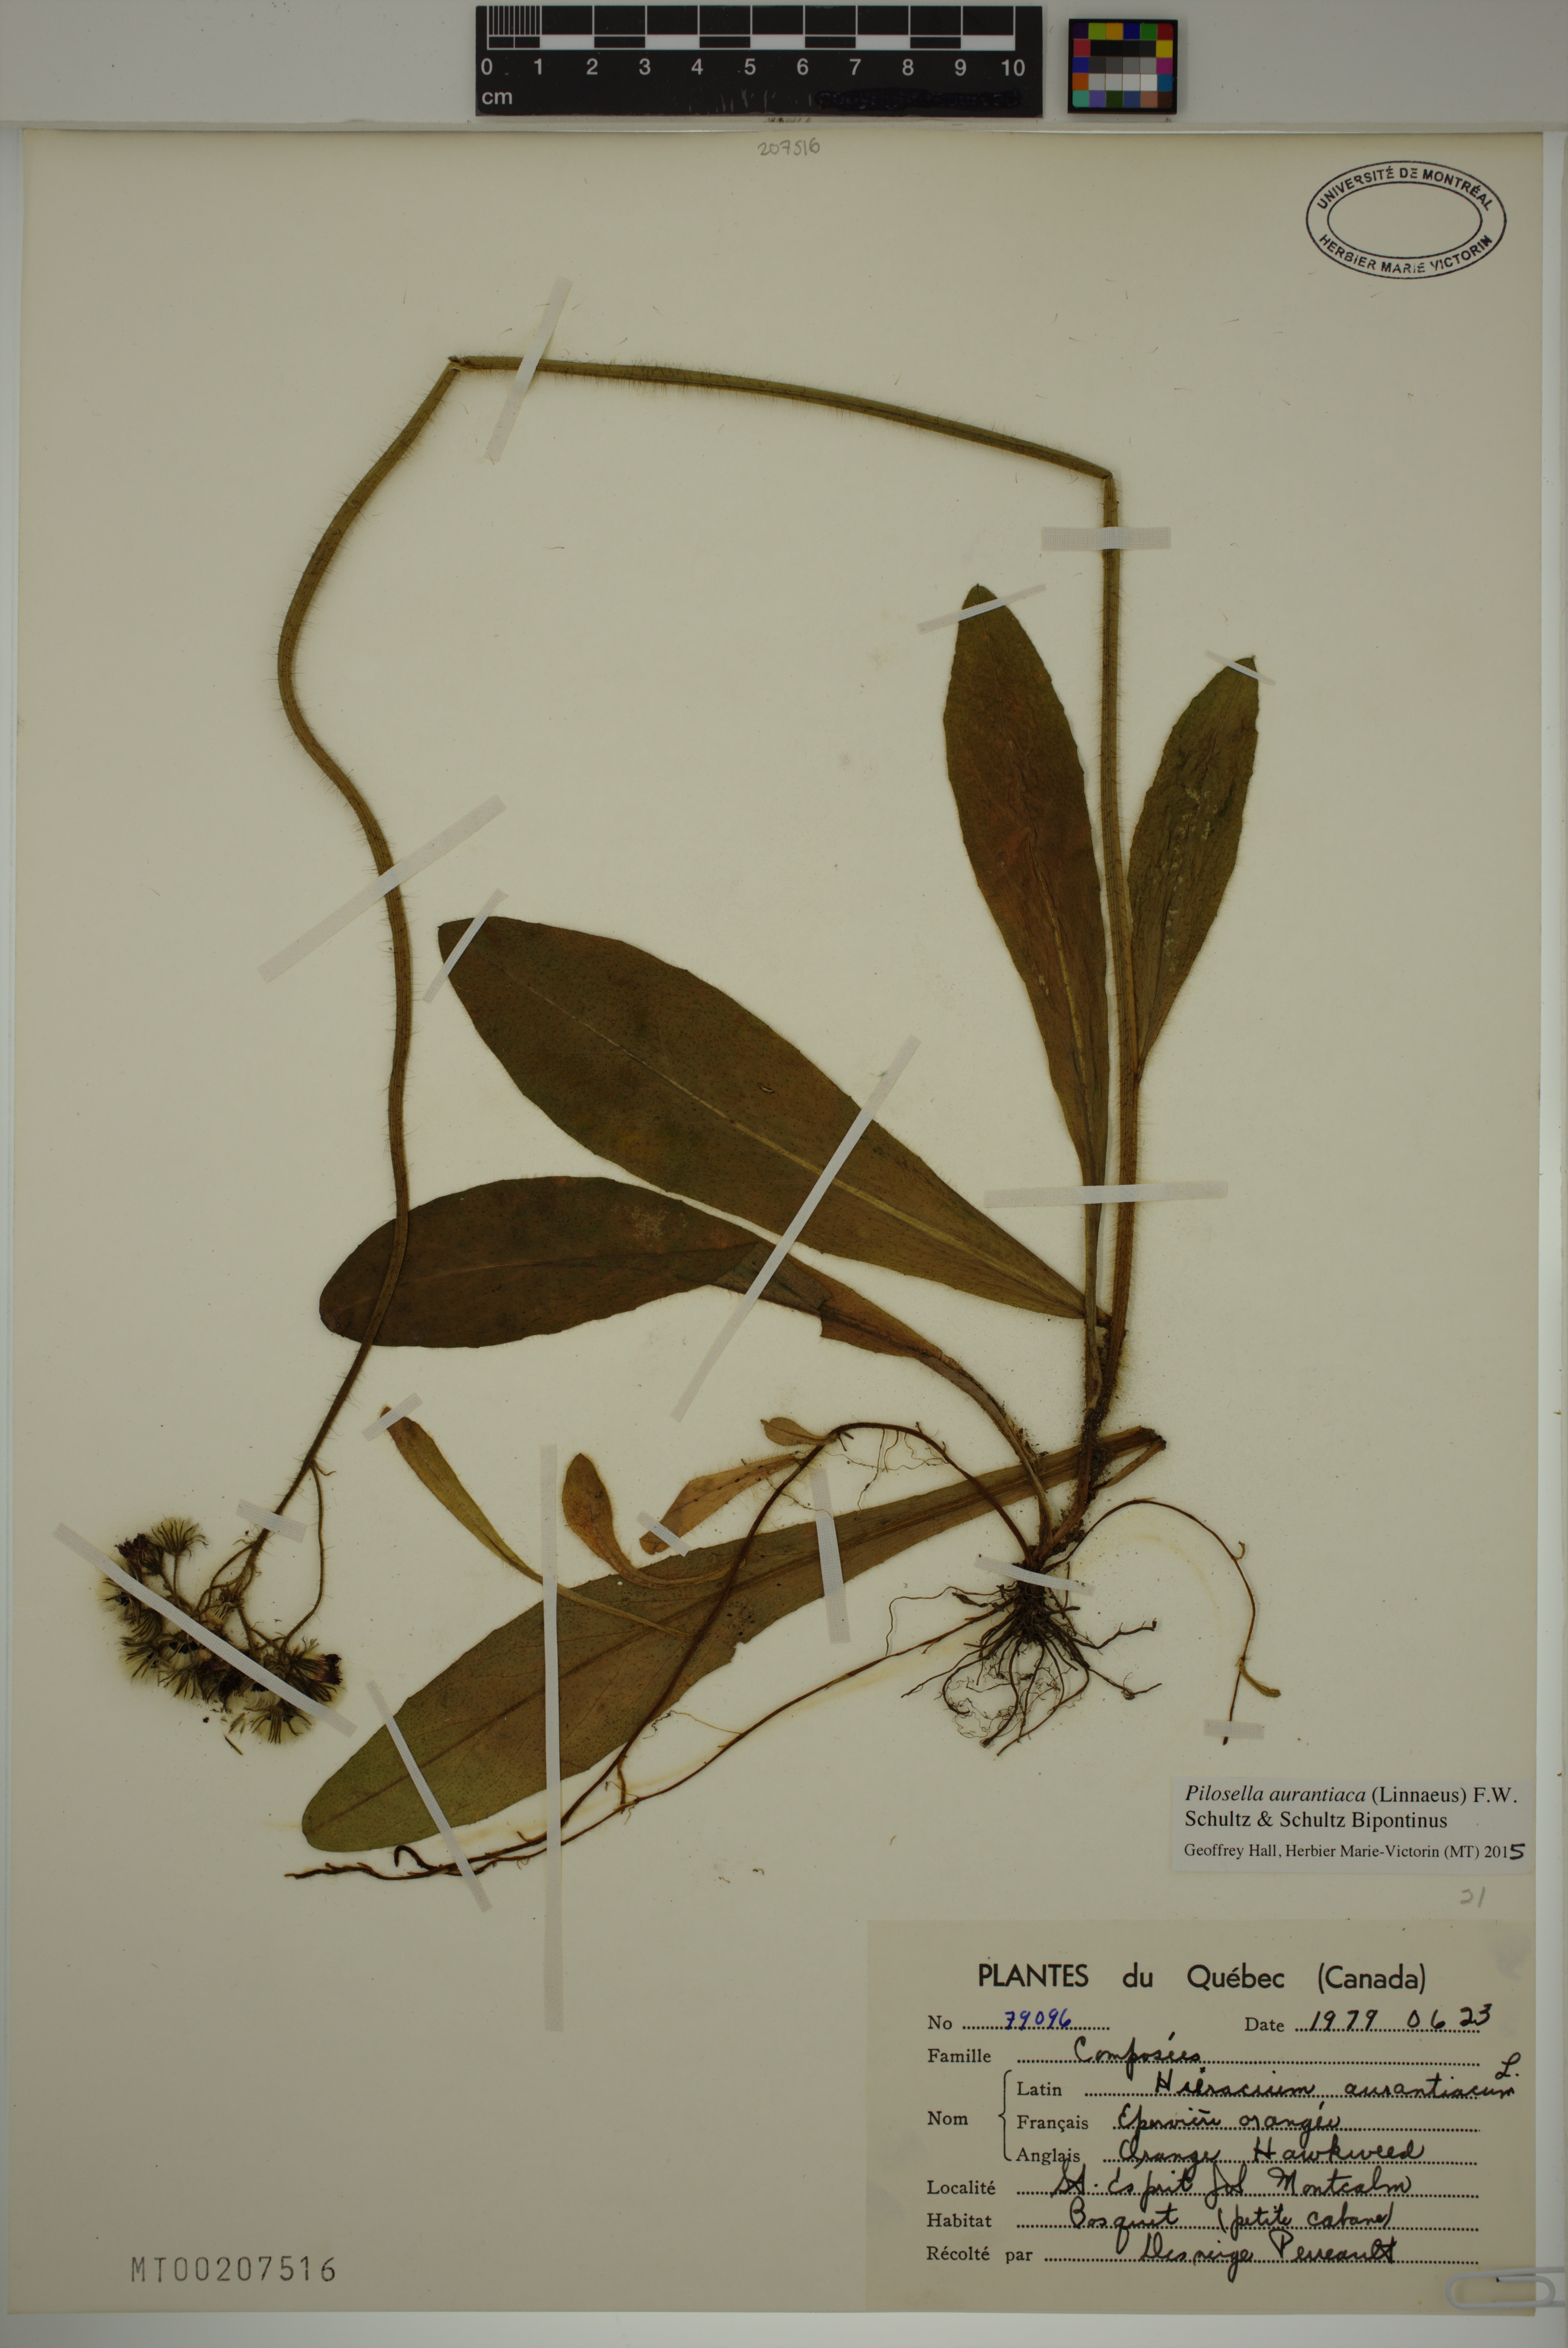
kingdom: Plantae
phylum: Tracheophyta
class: Magnoliopsida
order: Asterales
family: Asteraceae
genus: Pilosella
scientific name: Pilosella aurantiaca
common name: Fox-and-cubs
